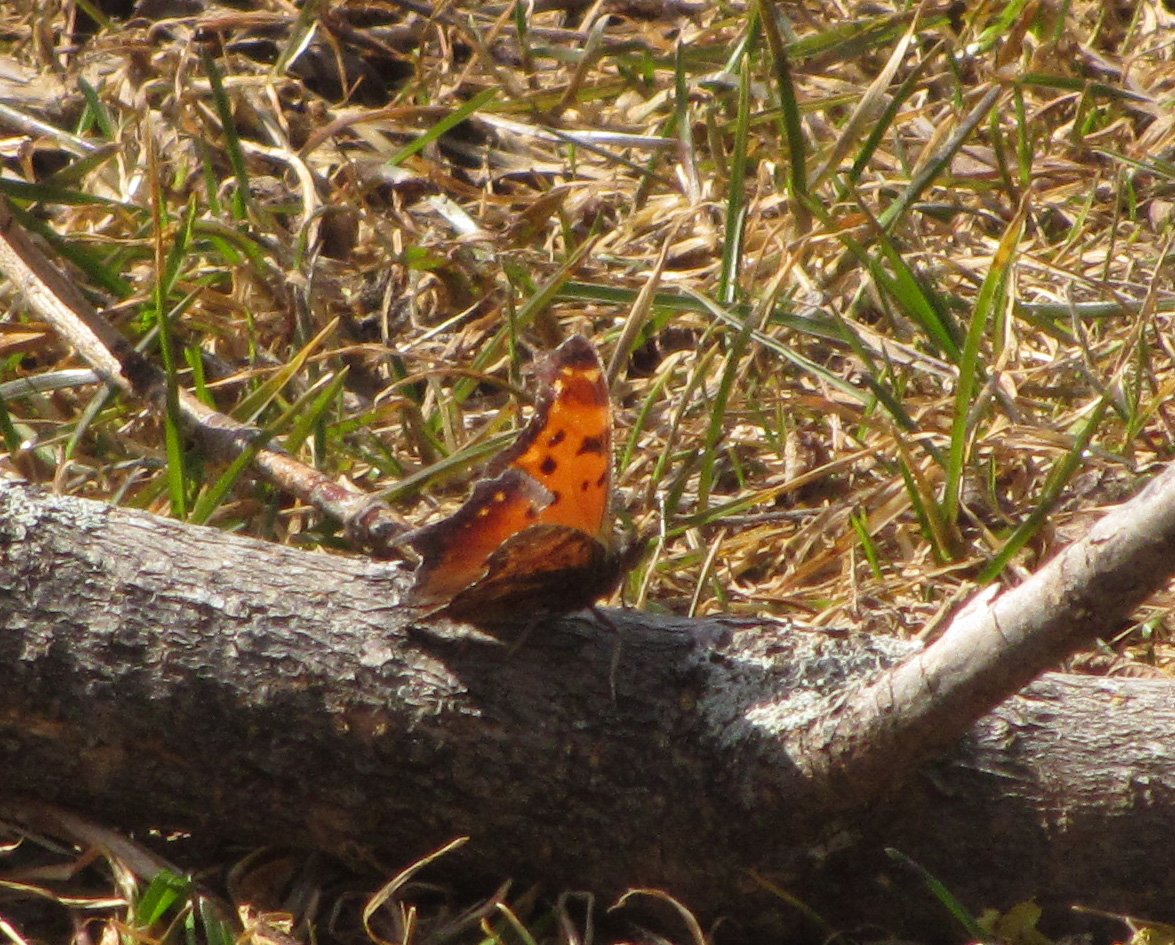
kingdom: Animalia
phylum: Arthropoda
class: Insecta
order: Lepidoptera
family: Nymphalidae
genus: Polygonia
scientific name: Polygonia progne
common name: Gray Comma
